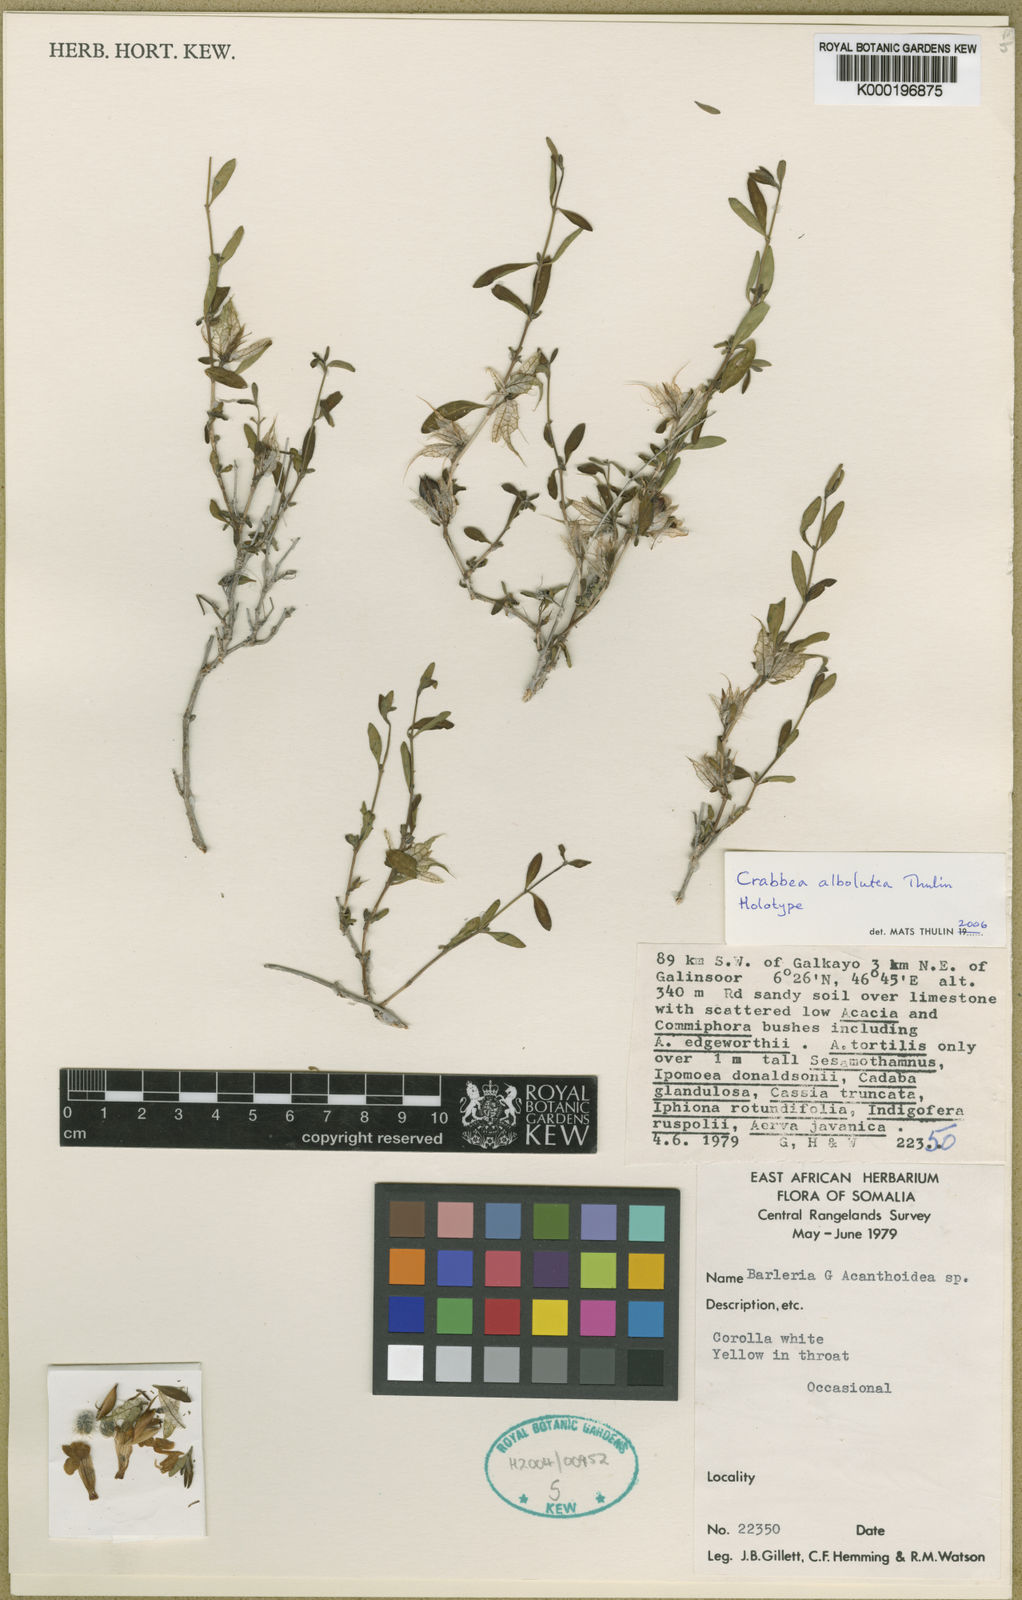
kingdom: Plantae
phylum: Tracheophyta
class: Magnoliopsida
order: Lamiales
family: Acanthaceae
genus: Crabbea
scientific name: Crabbea albolutea
